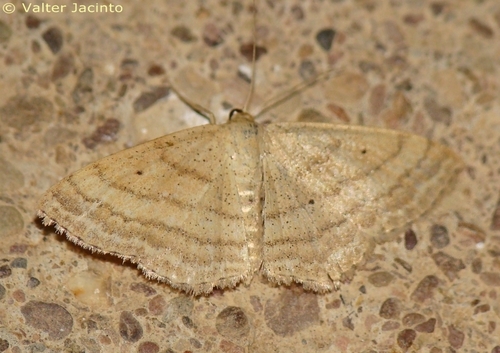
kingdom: Animalia
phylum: Arthropoda
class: Insecta
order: Lepidoptera
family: Geometridae
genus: Scopula
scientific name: Scopula turbidaria
